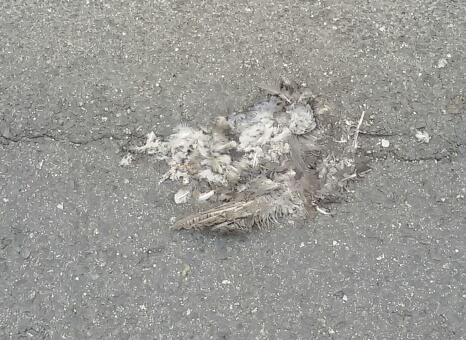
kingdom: Animalia
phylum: Chordata
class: Aves
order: Columbiformes
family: Columbidae
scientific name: Columbidae
